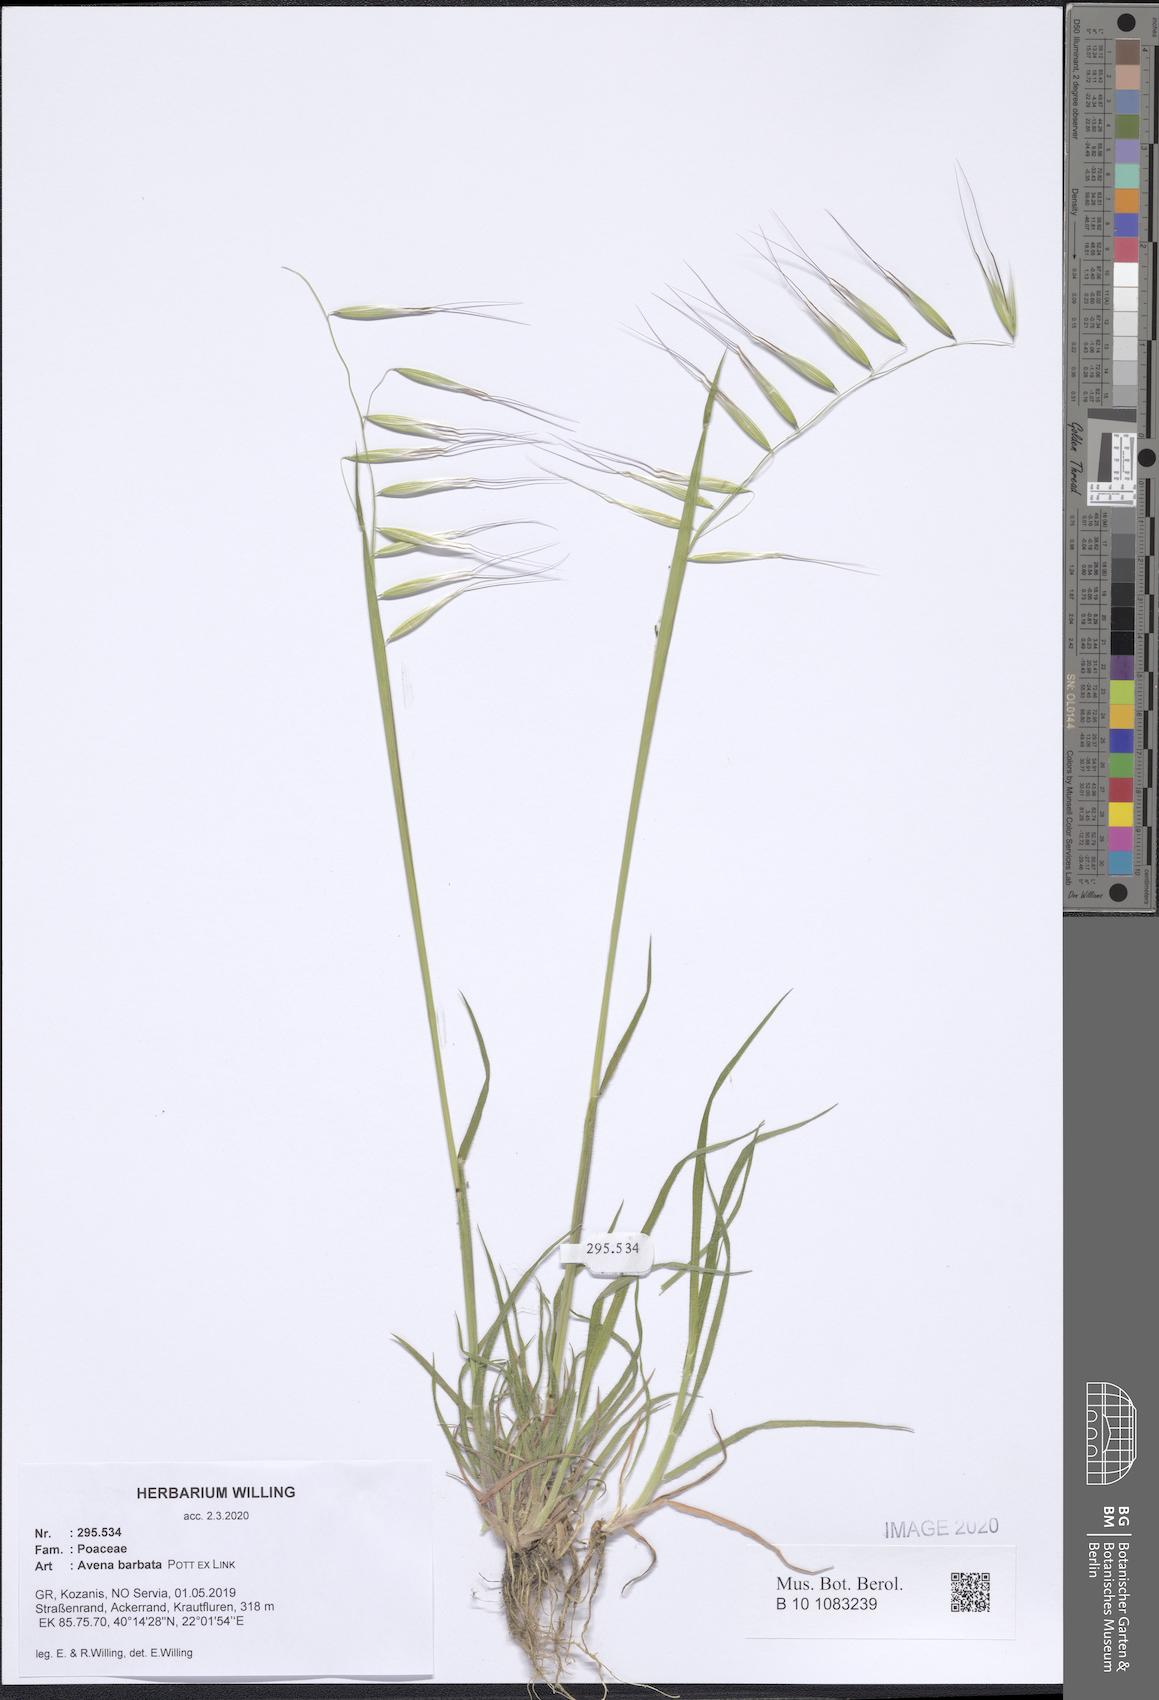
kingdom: Plantae
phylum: Tracheophyta
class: Liliopsida
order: Poales
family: Poaceae
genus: Avena
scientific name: Avena barbata
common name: Slender oat
